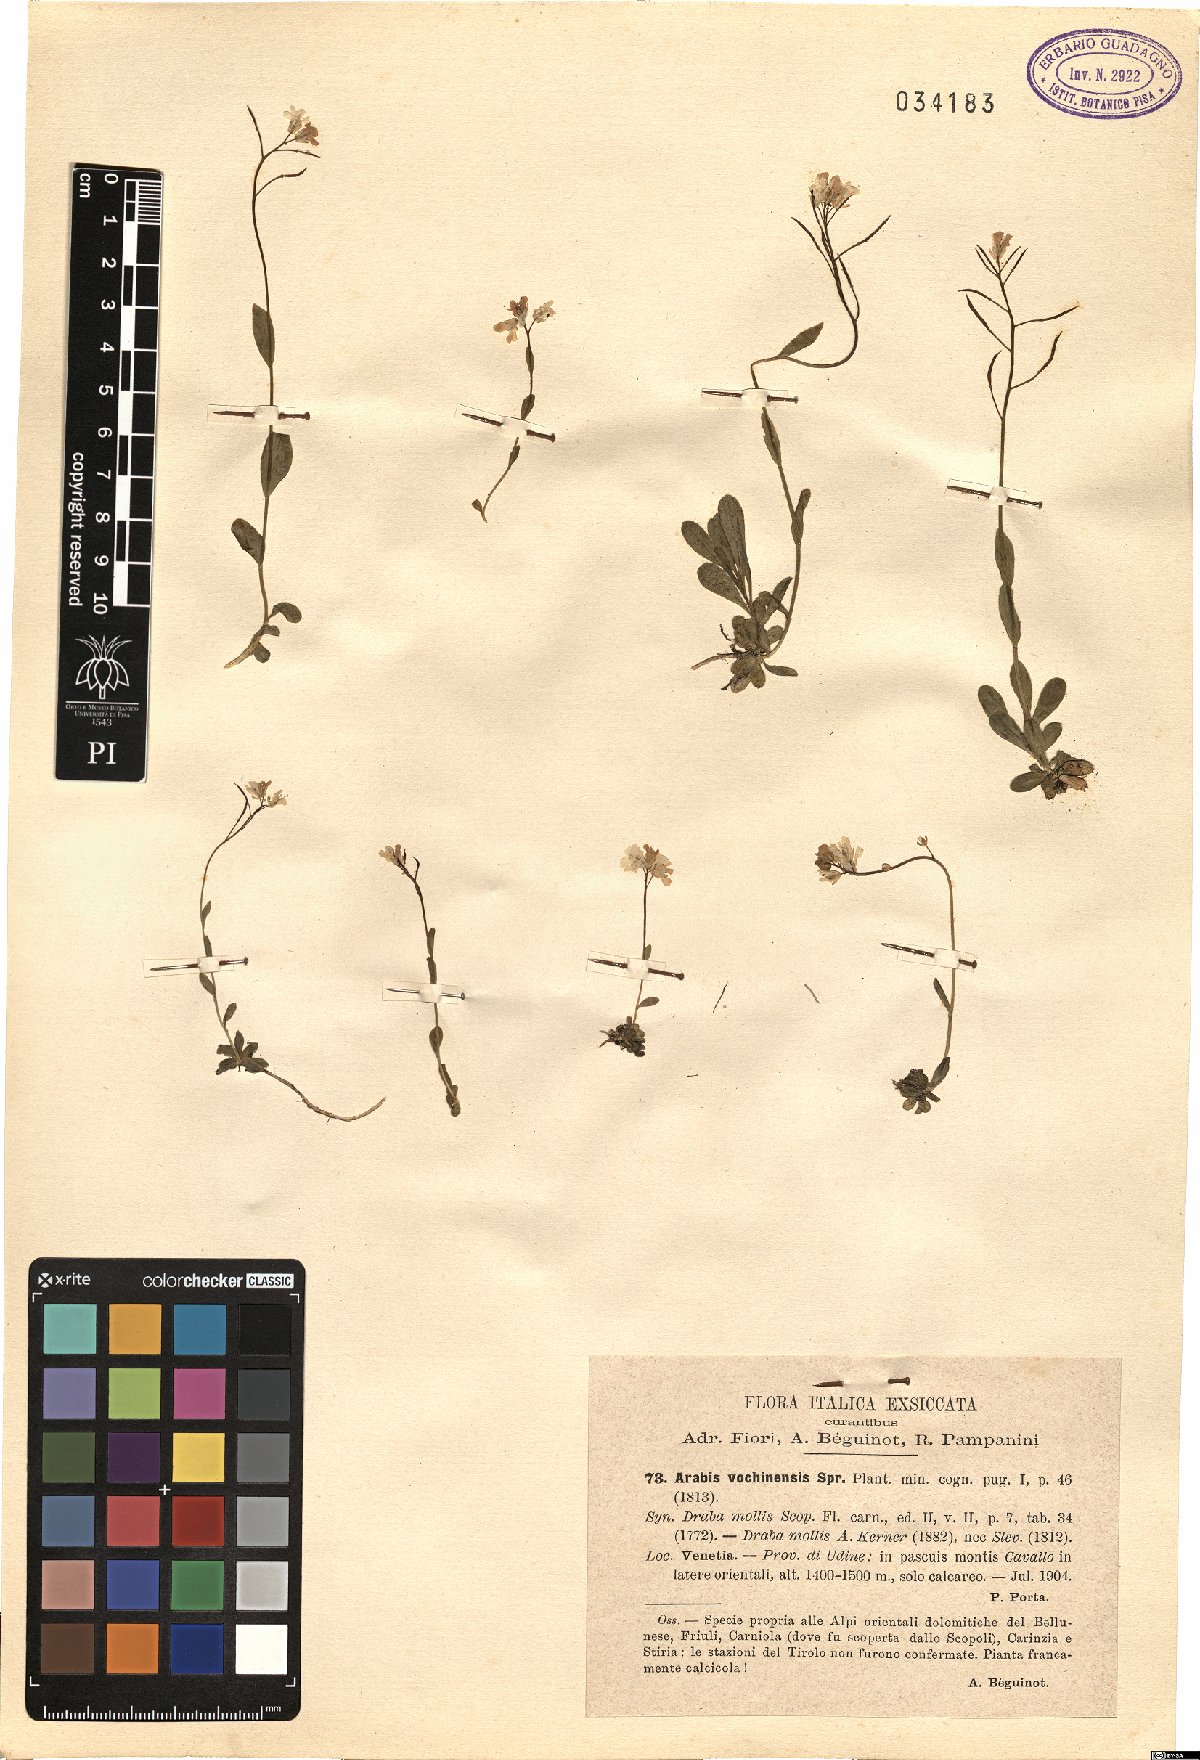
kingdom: Plantae
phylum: Tracheophyta
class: Magnoliopsida
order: Brassicales
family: Brassicaceae
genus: Arabis
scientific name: Arabis vochinensis
